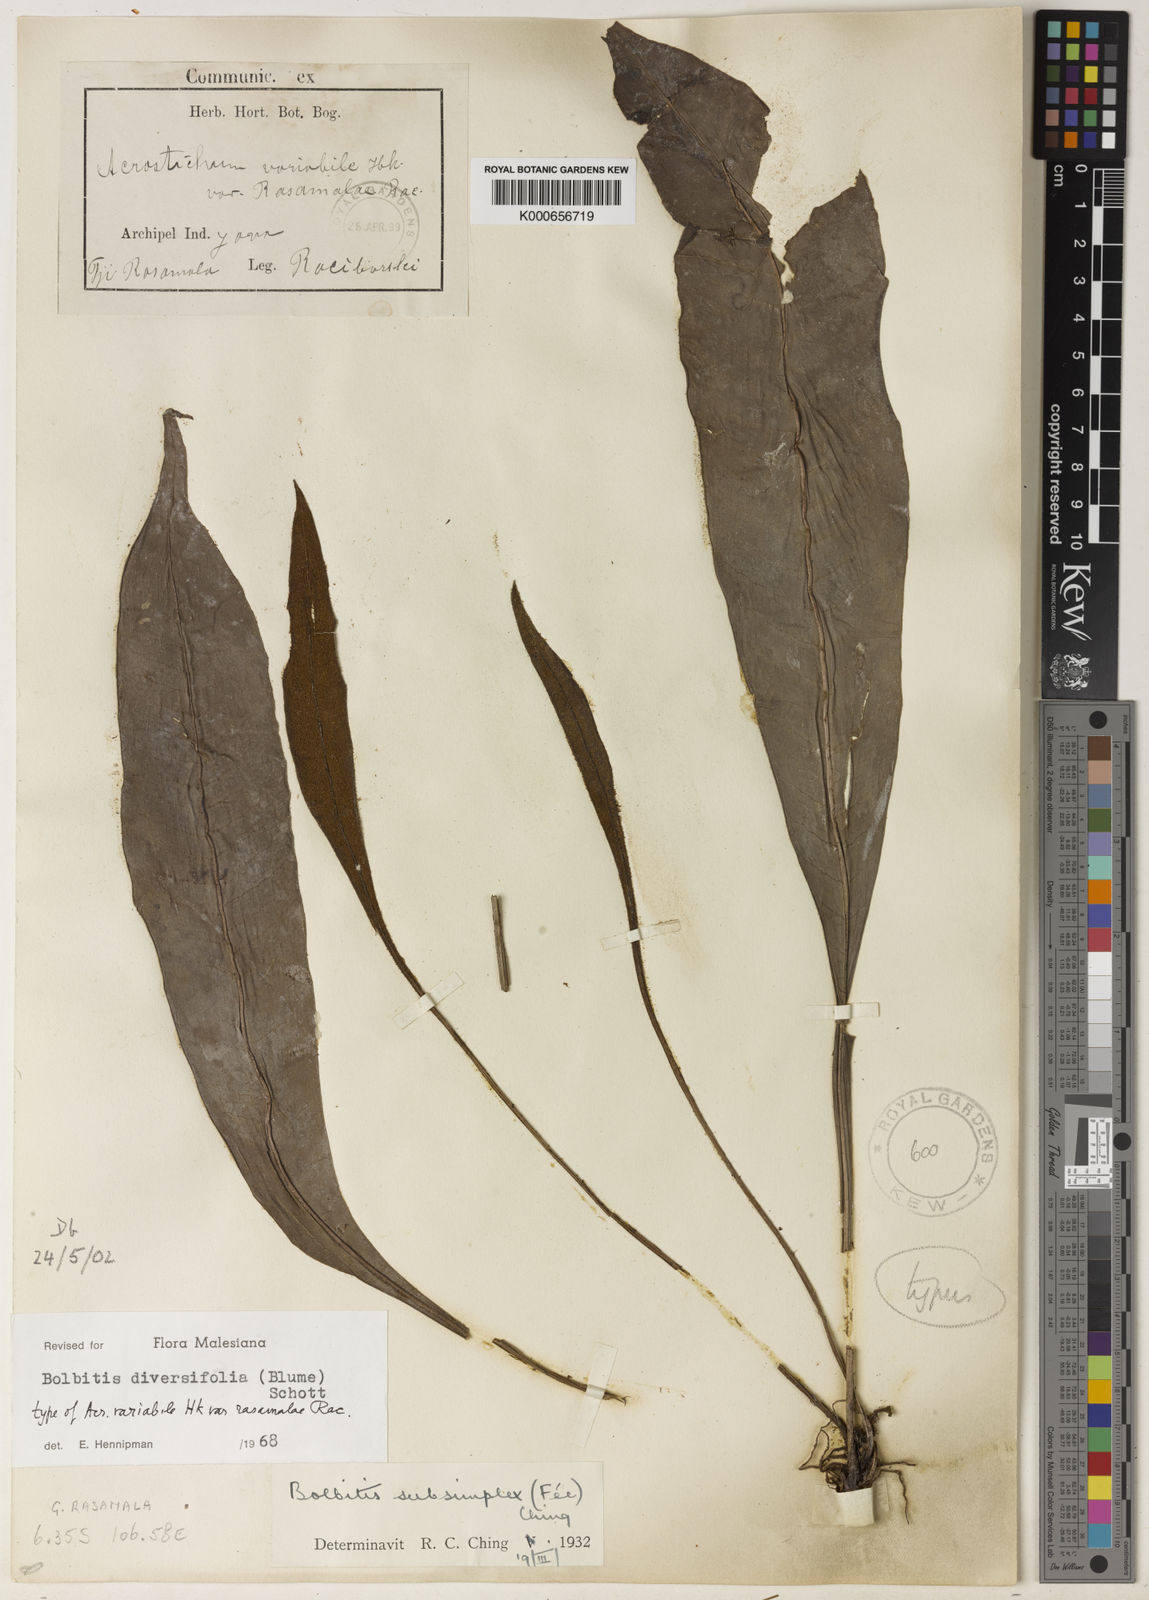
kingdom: Plantae
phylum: Tracheophyta
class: Polypodiopsida
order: Polypodiales
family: Dryopteridaceae
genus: Bolbitis
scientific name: Bolbitis sinuata
